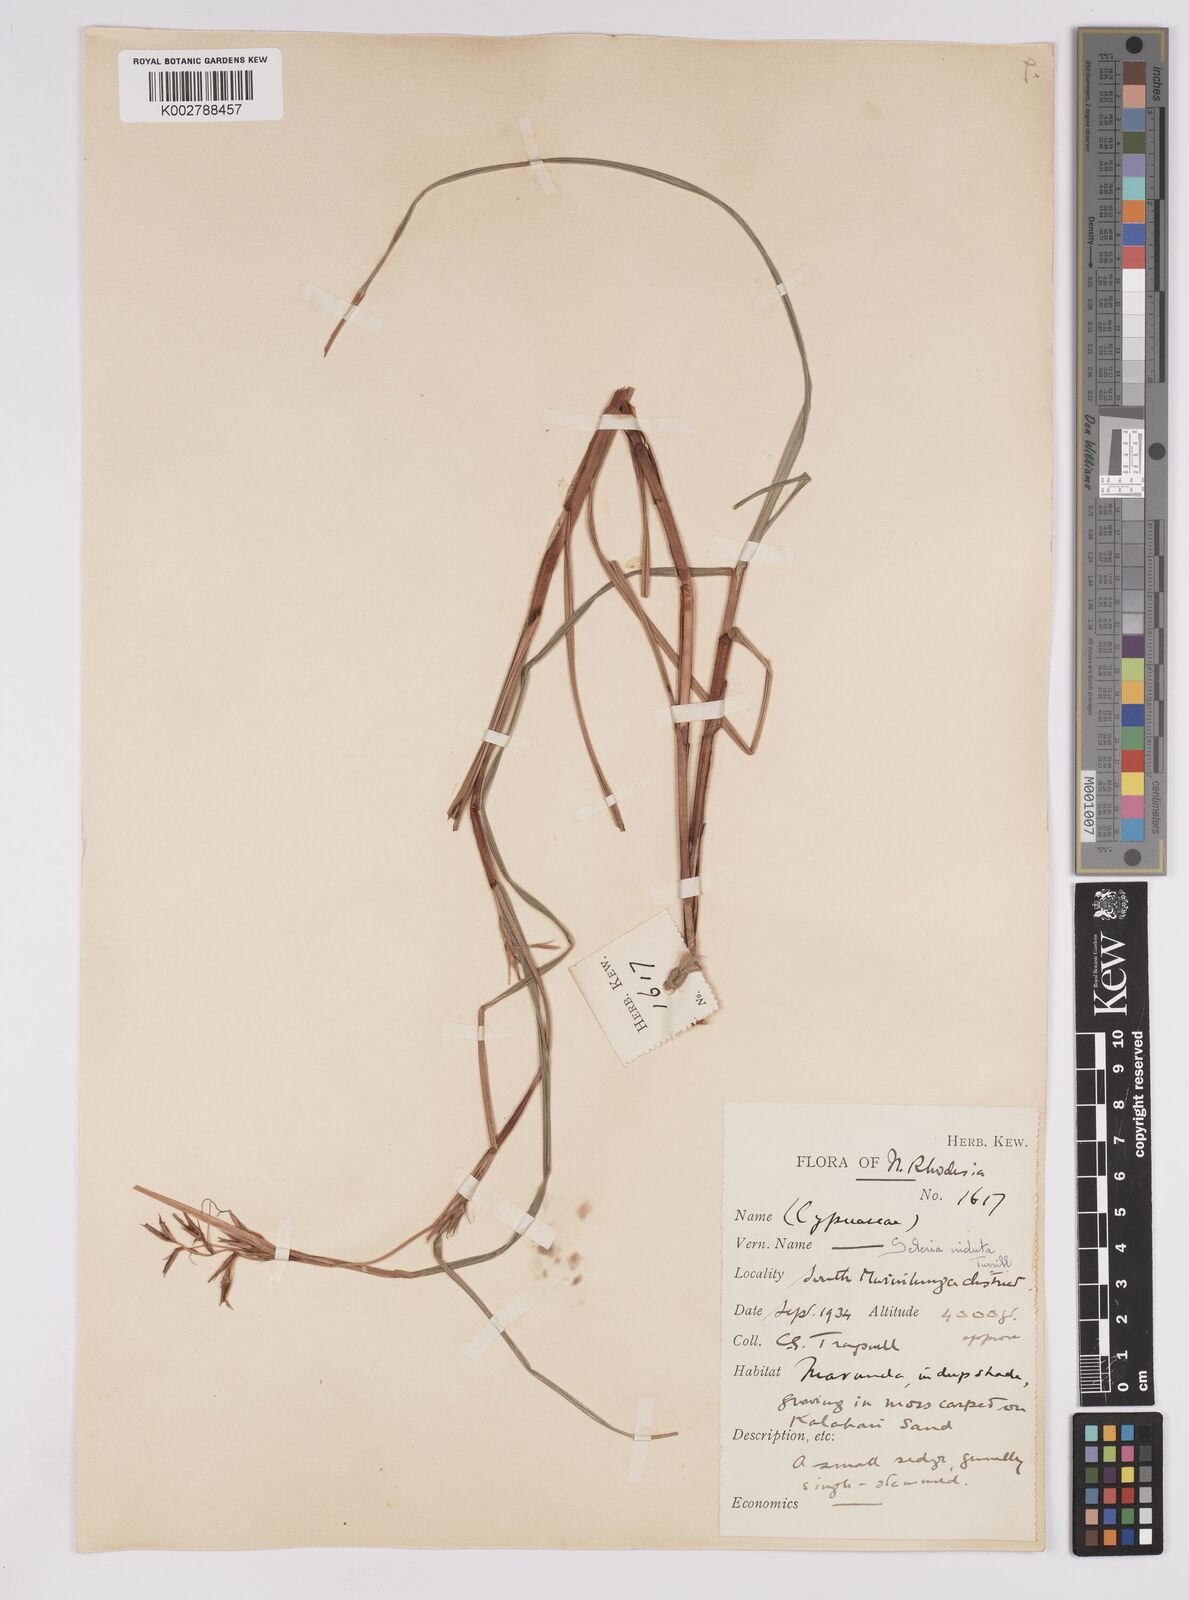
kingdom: Plantae
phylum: Tracheophyta
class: Liliopsida
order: Poales
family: Cyperaceae
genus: Scleria
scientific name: Scleria induta
